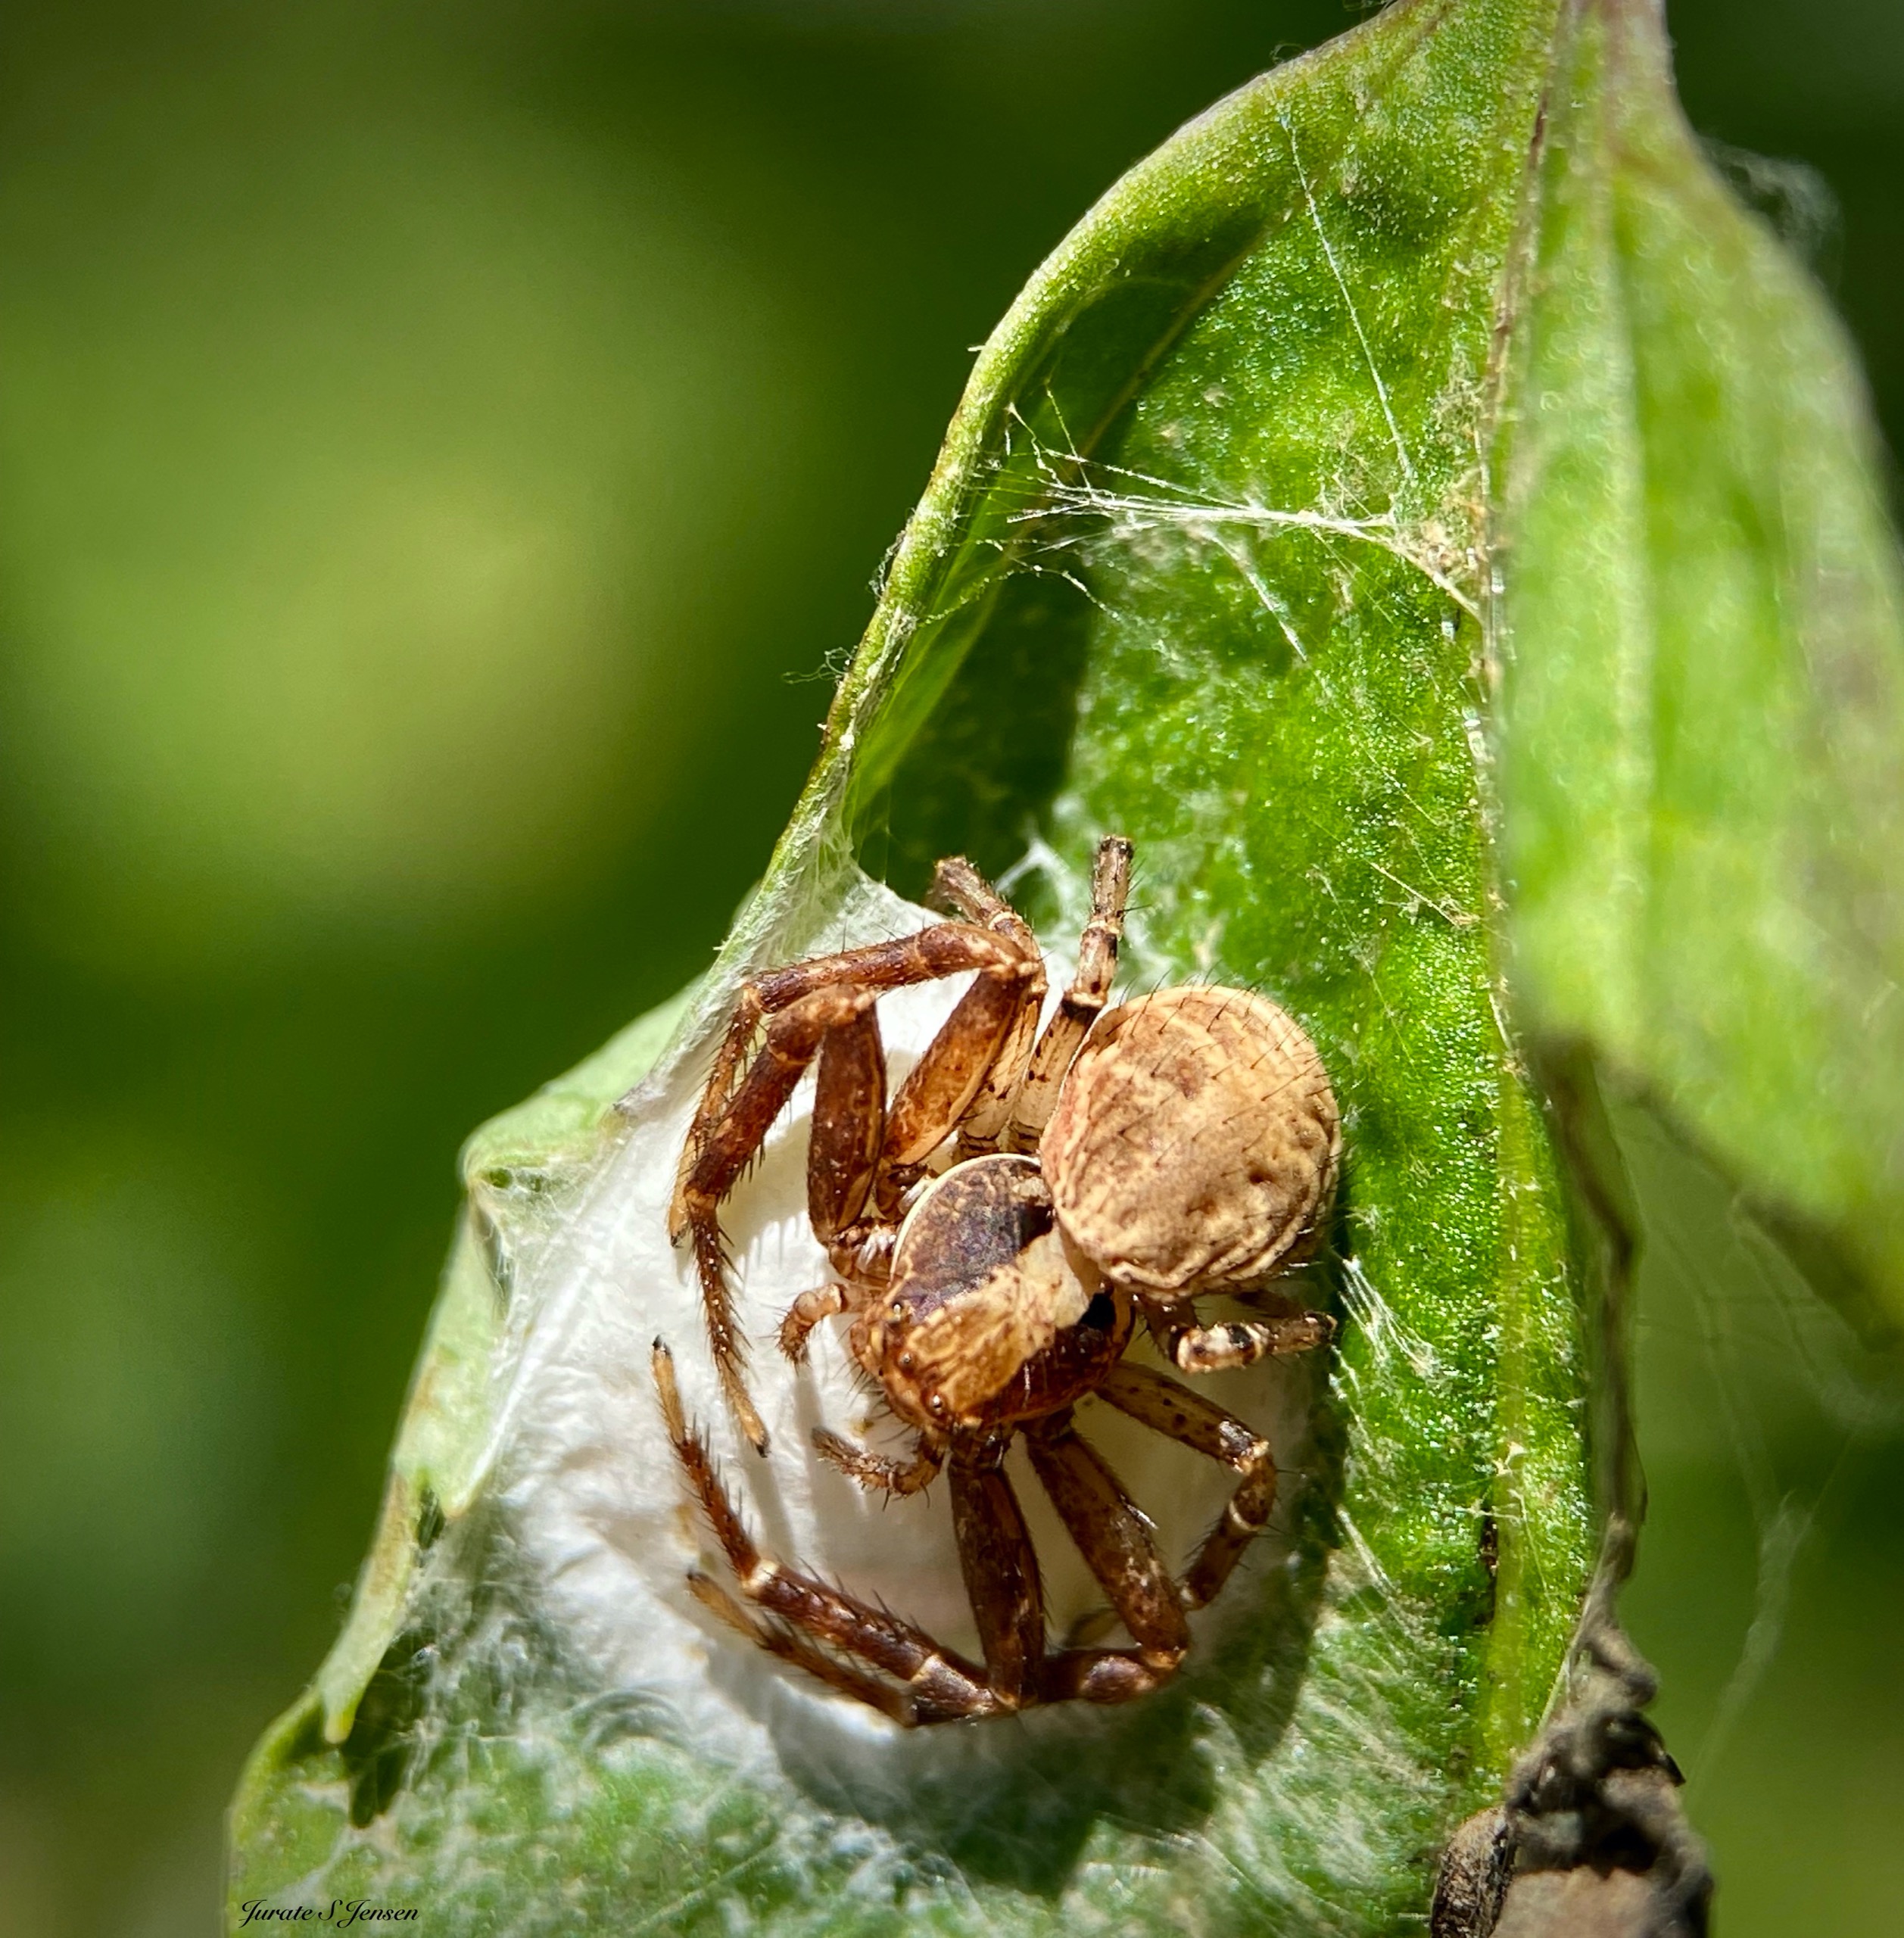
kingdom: Animalia
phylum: Arthropoda
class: Arachnida
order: Araneae
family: Thomisidae
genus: Xysticus
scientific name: Xysticus lanio
